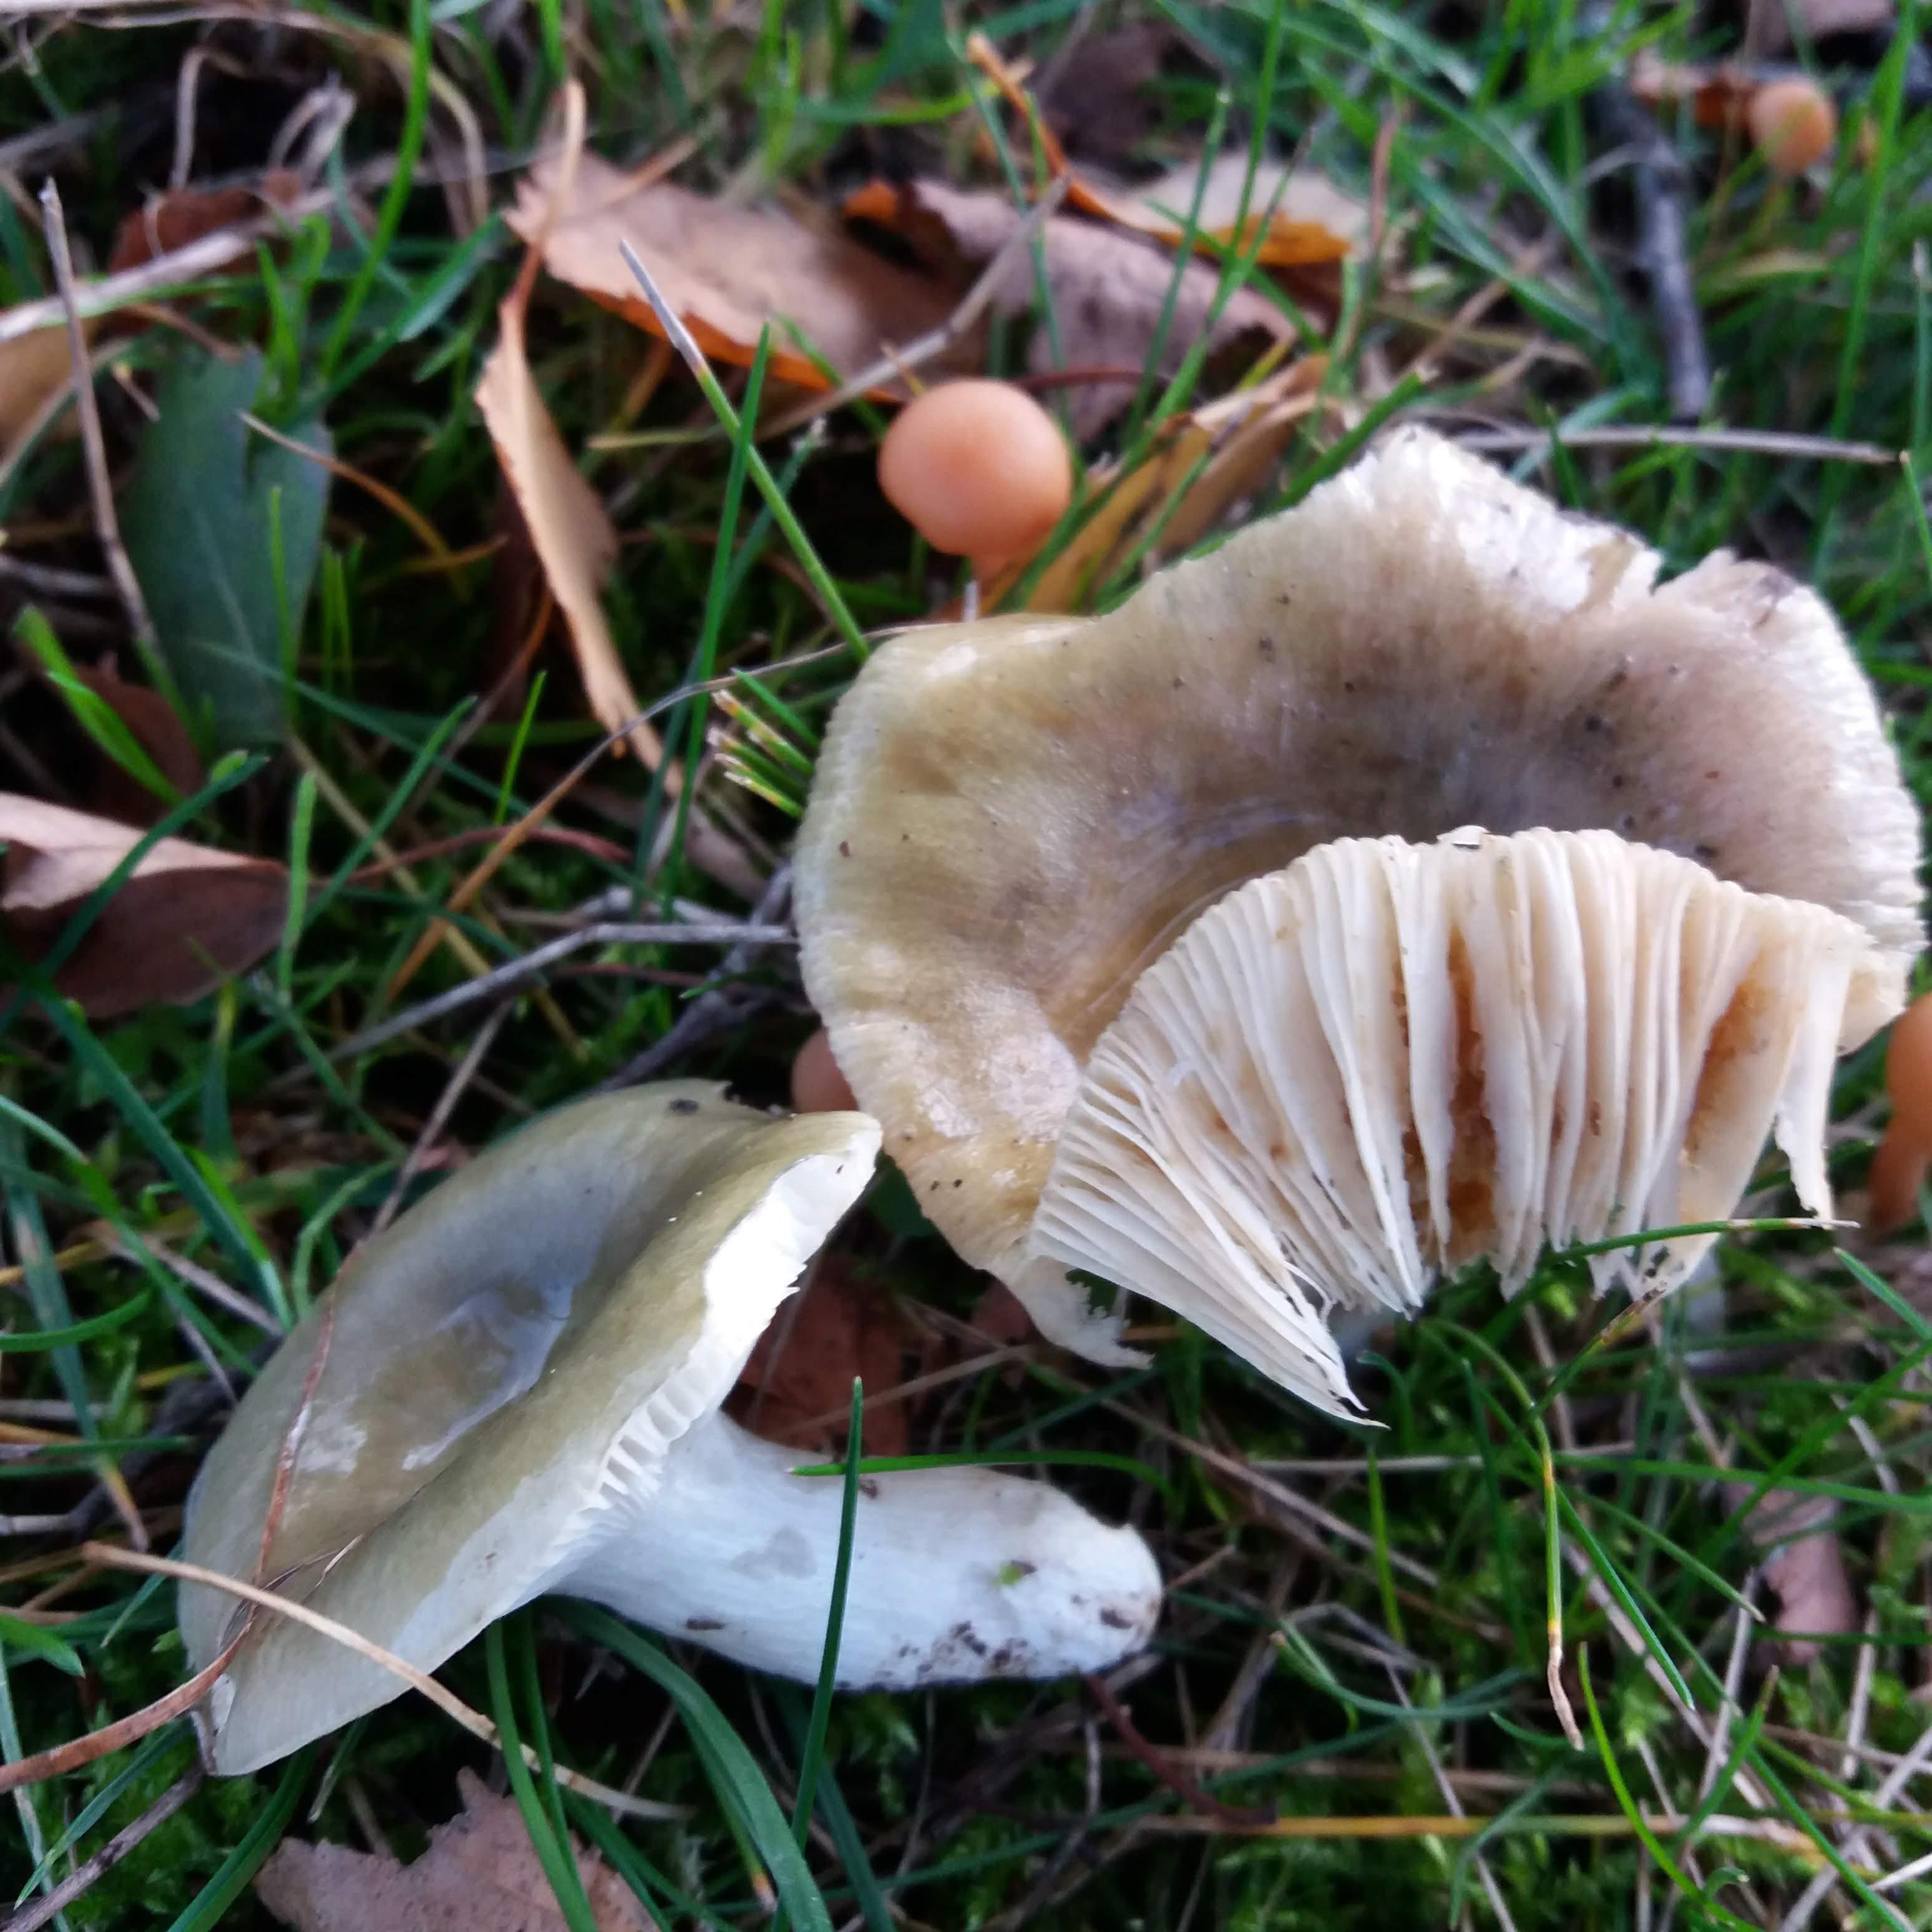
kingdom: Fungi
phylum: Basidiomycota
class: Agaricomycetes
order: Russulales
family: Russulaceae
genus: Russula
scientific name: Russula aeruginea
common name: græsgrøn skørhat
